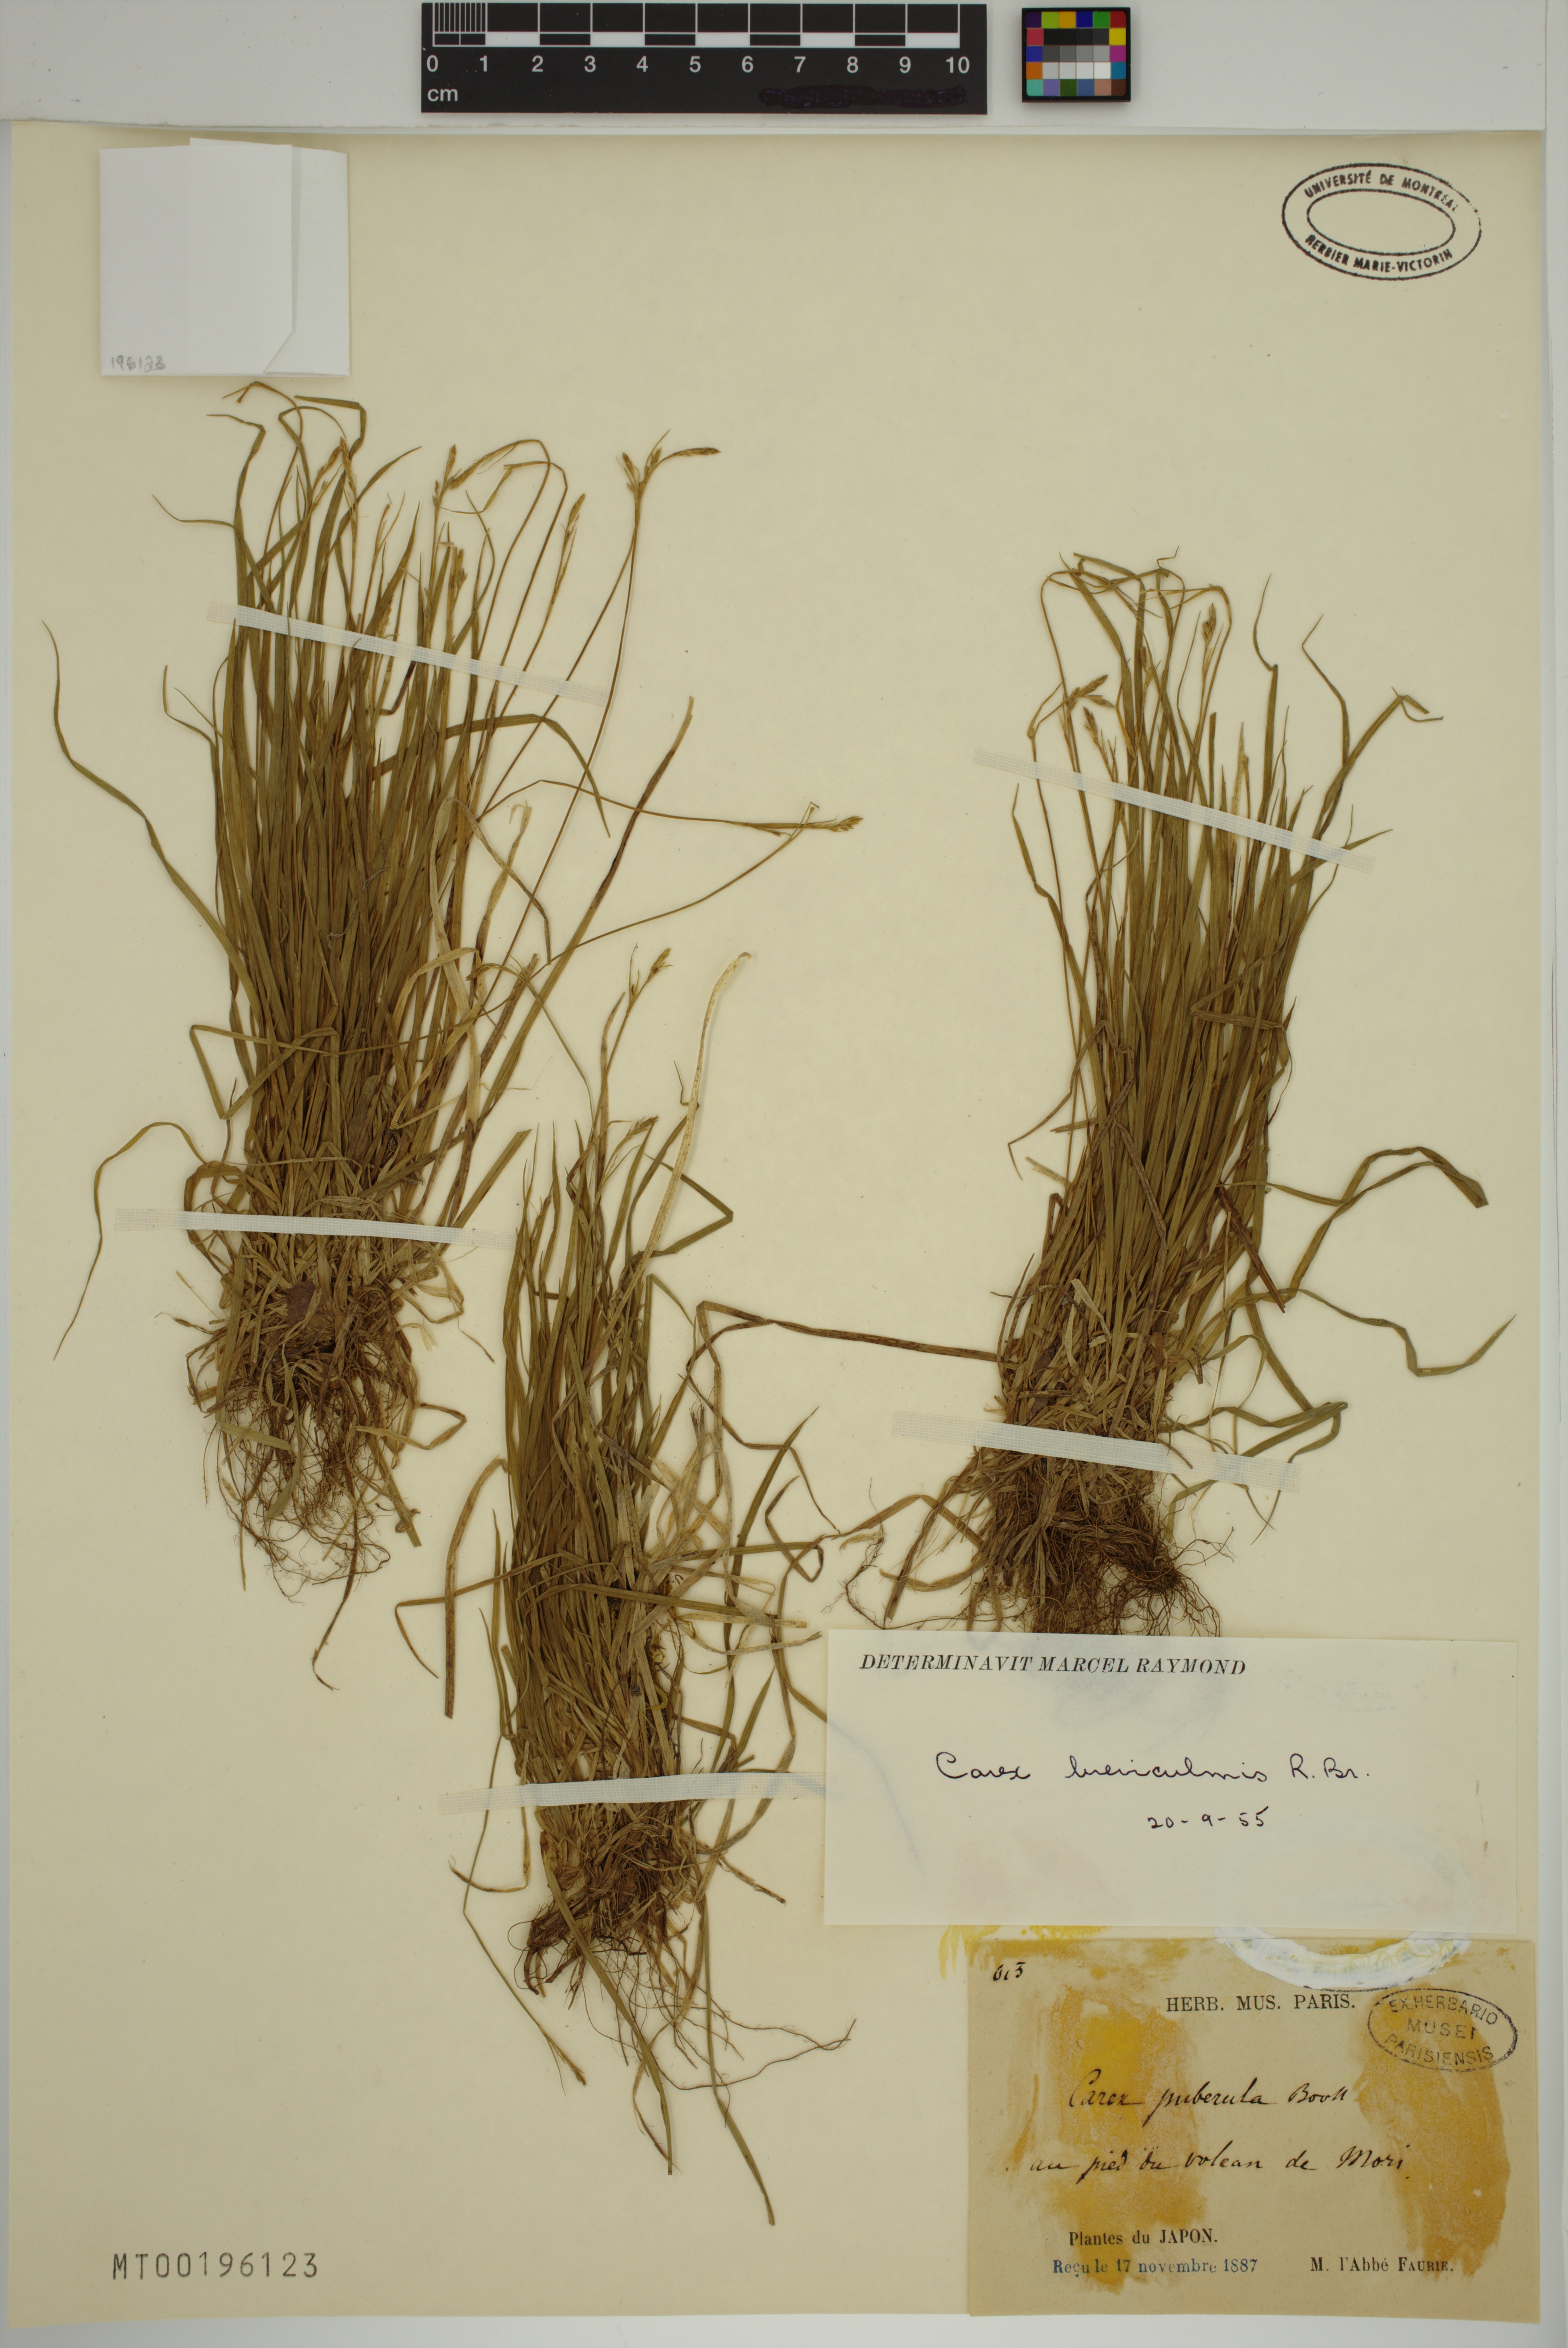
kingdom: Plantae
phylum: Tracheophyta
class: Liliopsida
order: Poales
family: Cyperaceae
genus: Carex
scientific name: Carex breviculmis
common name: Asian shortstem sedge
